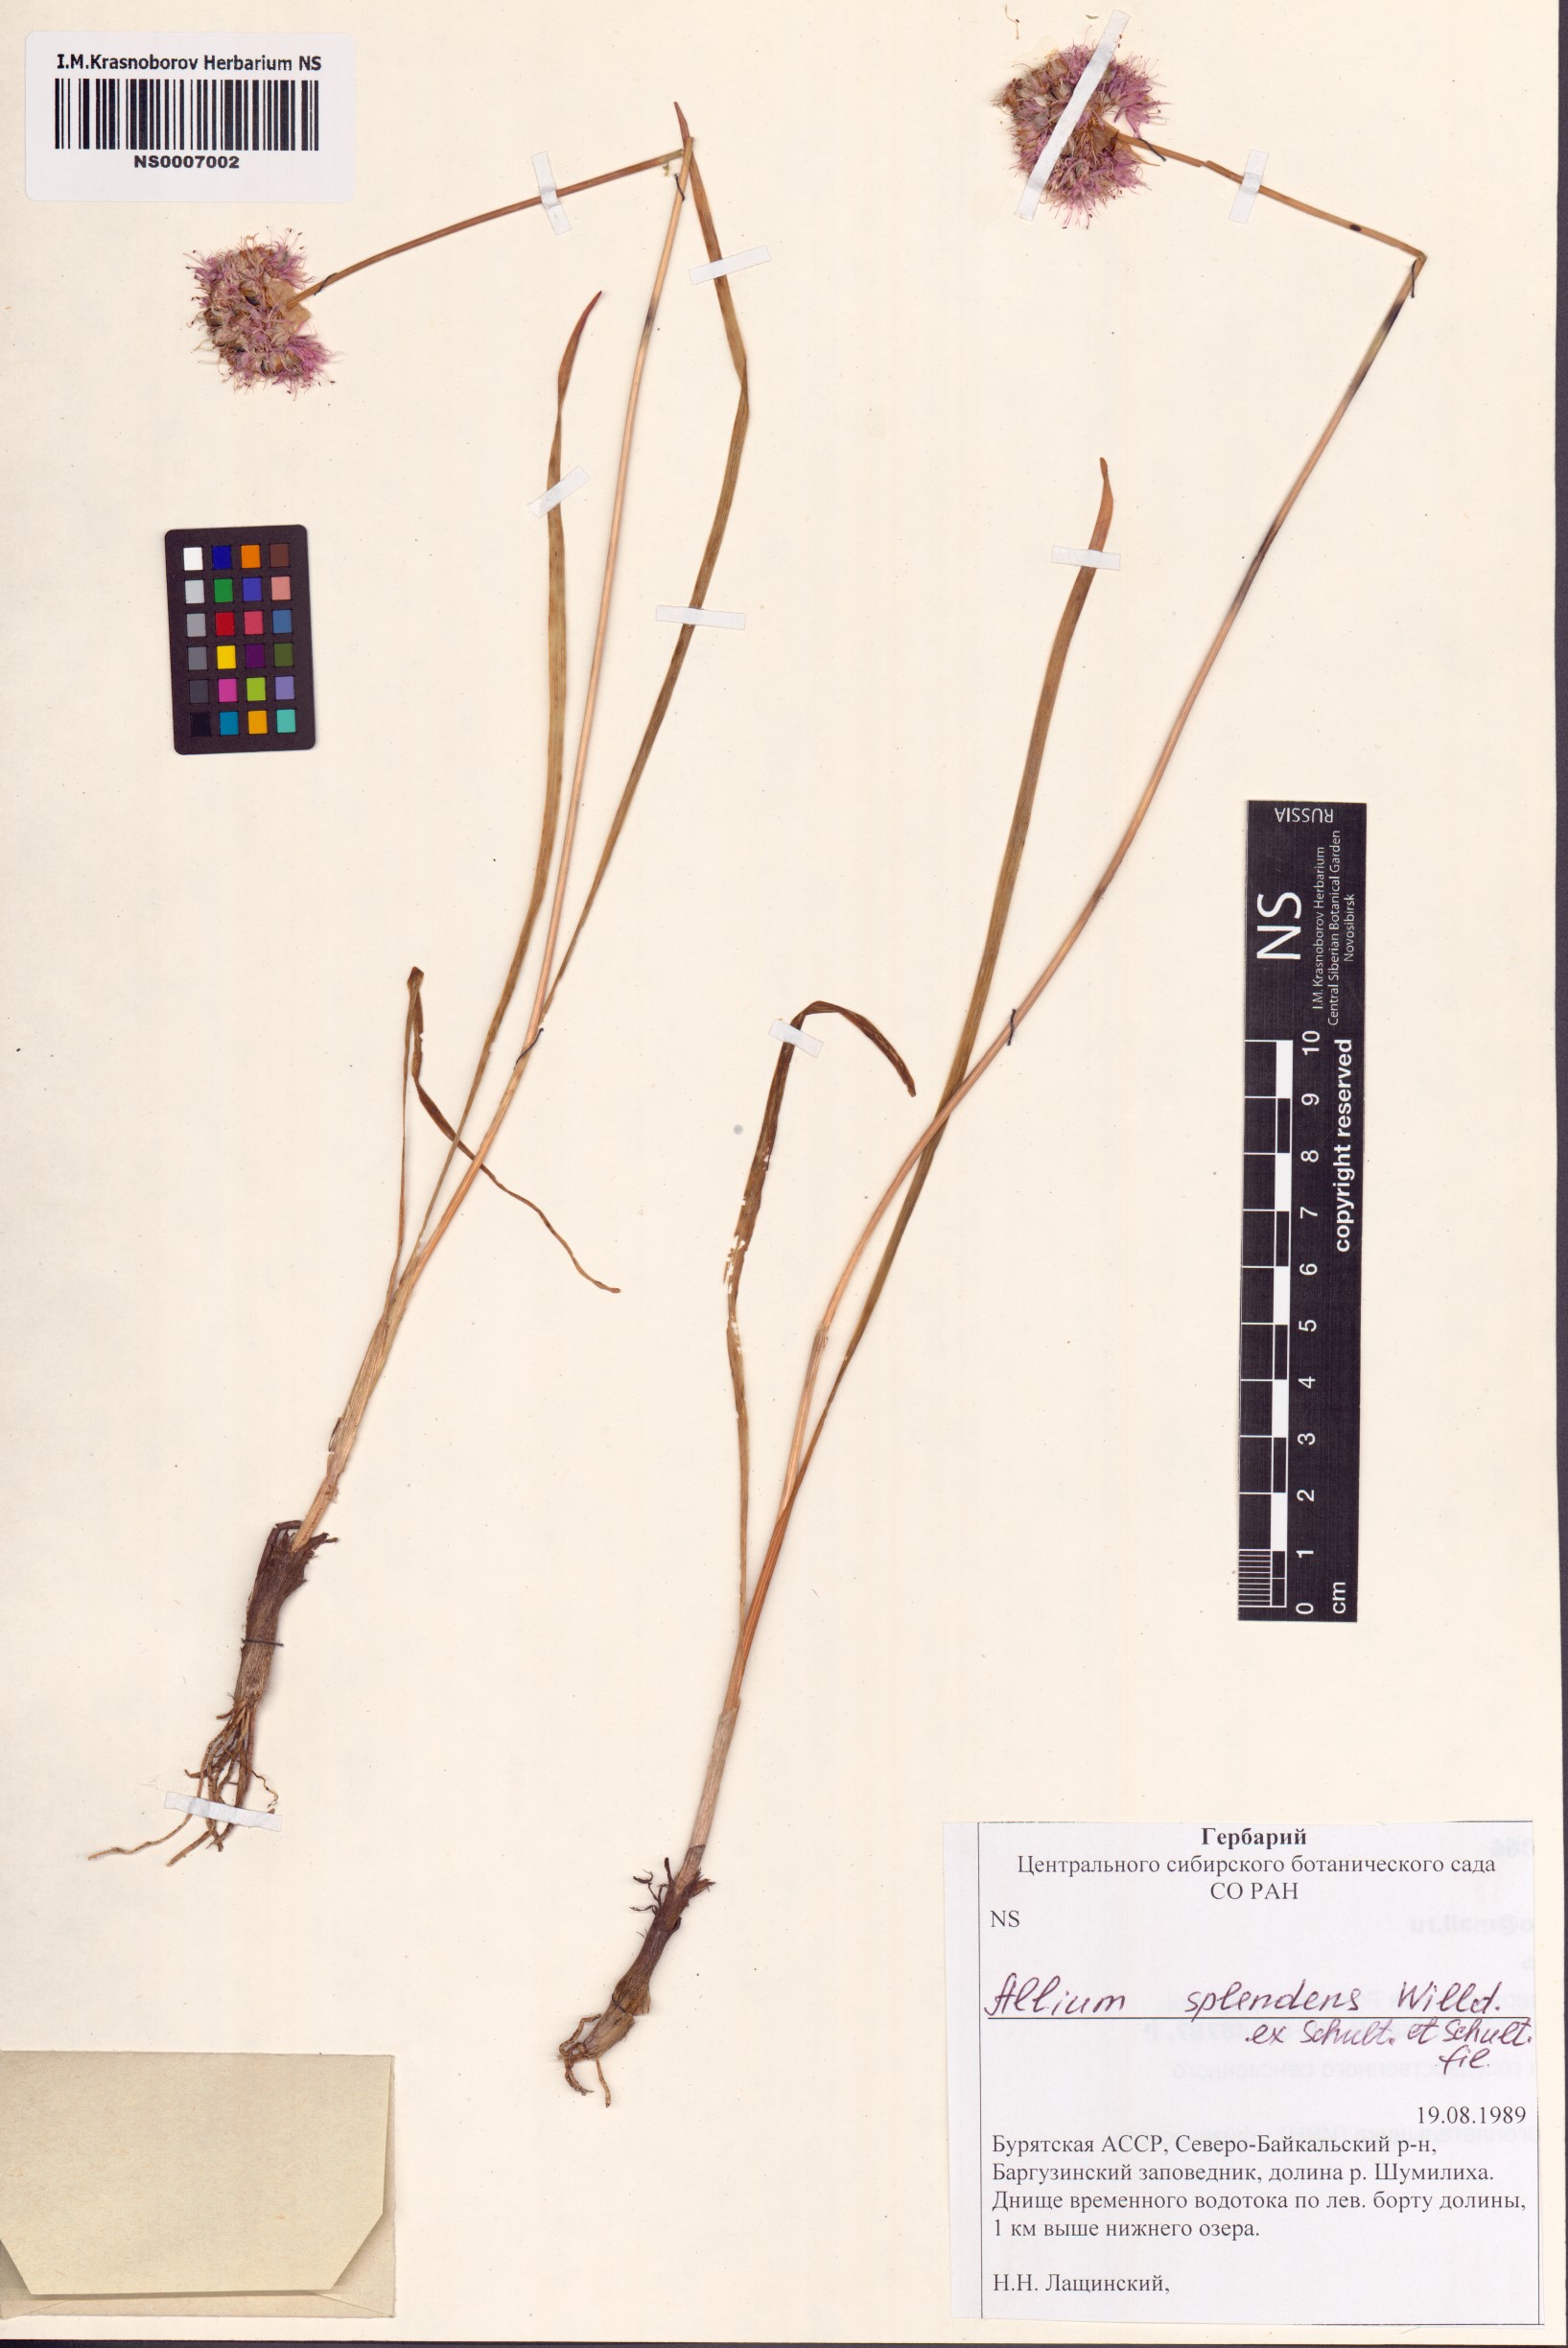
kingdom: Plantae
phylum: Tracheophyta
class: Liliopsida
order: Asparagales
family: Amaryllidaceae
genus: Allium
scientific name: Allium splendens
